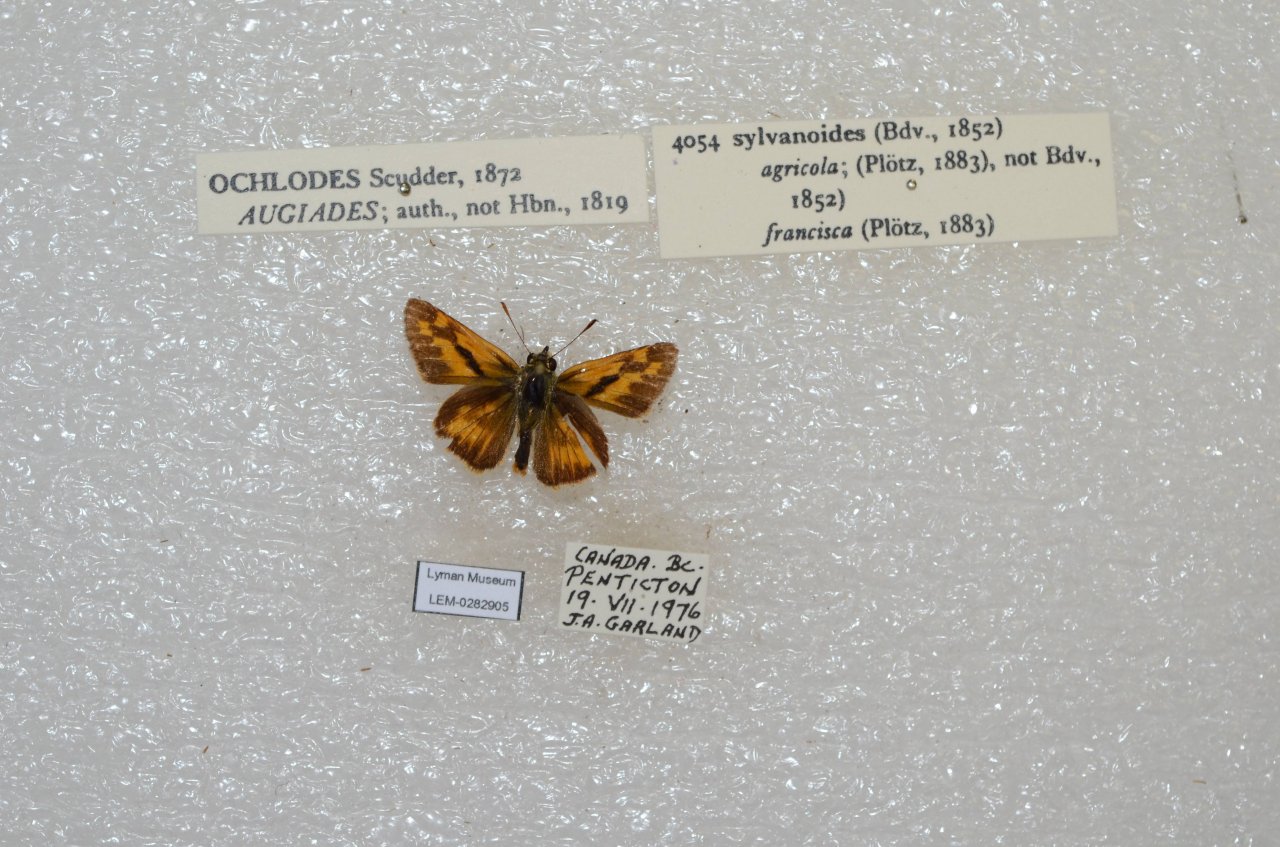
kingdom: Animalia
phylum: Arthropoda
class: Insecta
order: Lepidoptera
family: Hesperiidae
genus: Ochlodes
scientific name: Ochlodes sylvanoides
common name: Woodland Skipper
